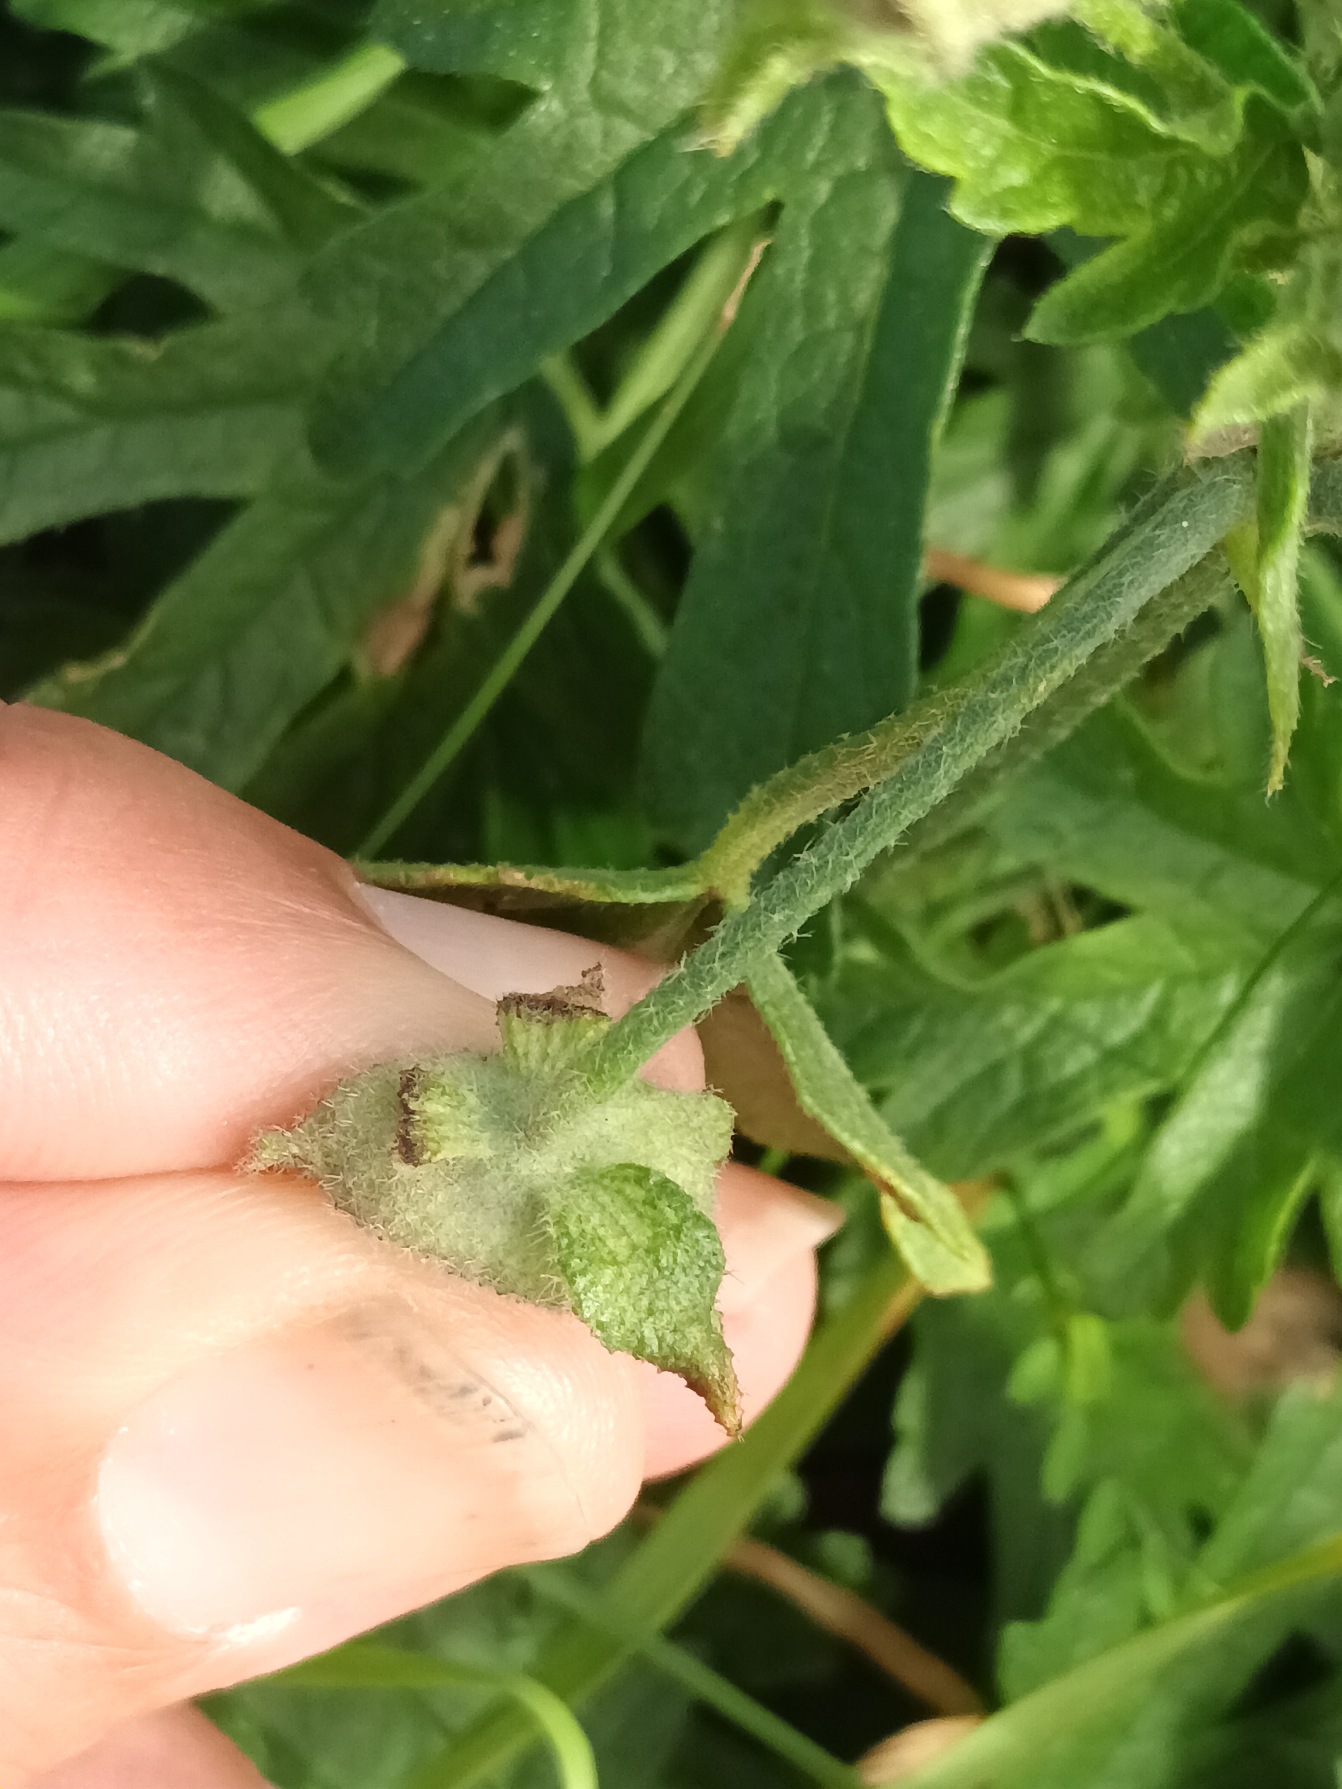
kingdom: Plantae
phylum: Tracheophyta
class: Magnoliopsida
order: Malvales
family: Malvaceae
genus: Malva
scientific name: Malva alcea
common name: Rosen-katost
